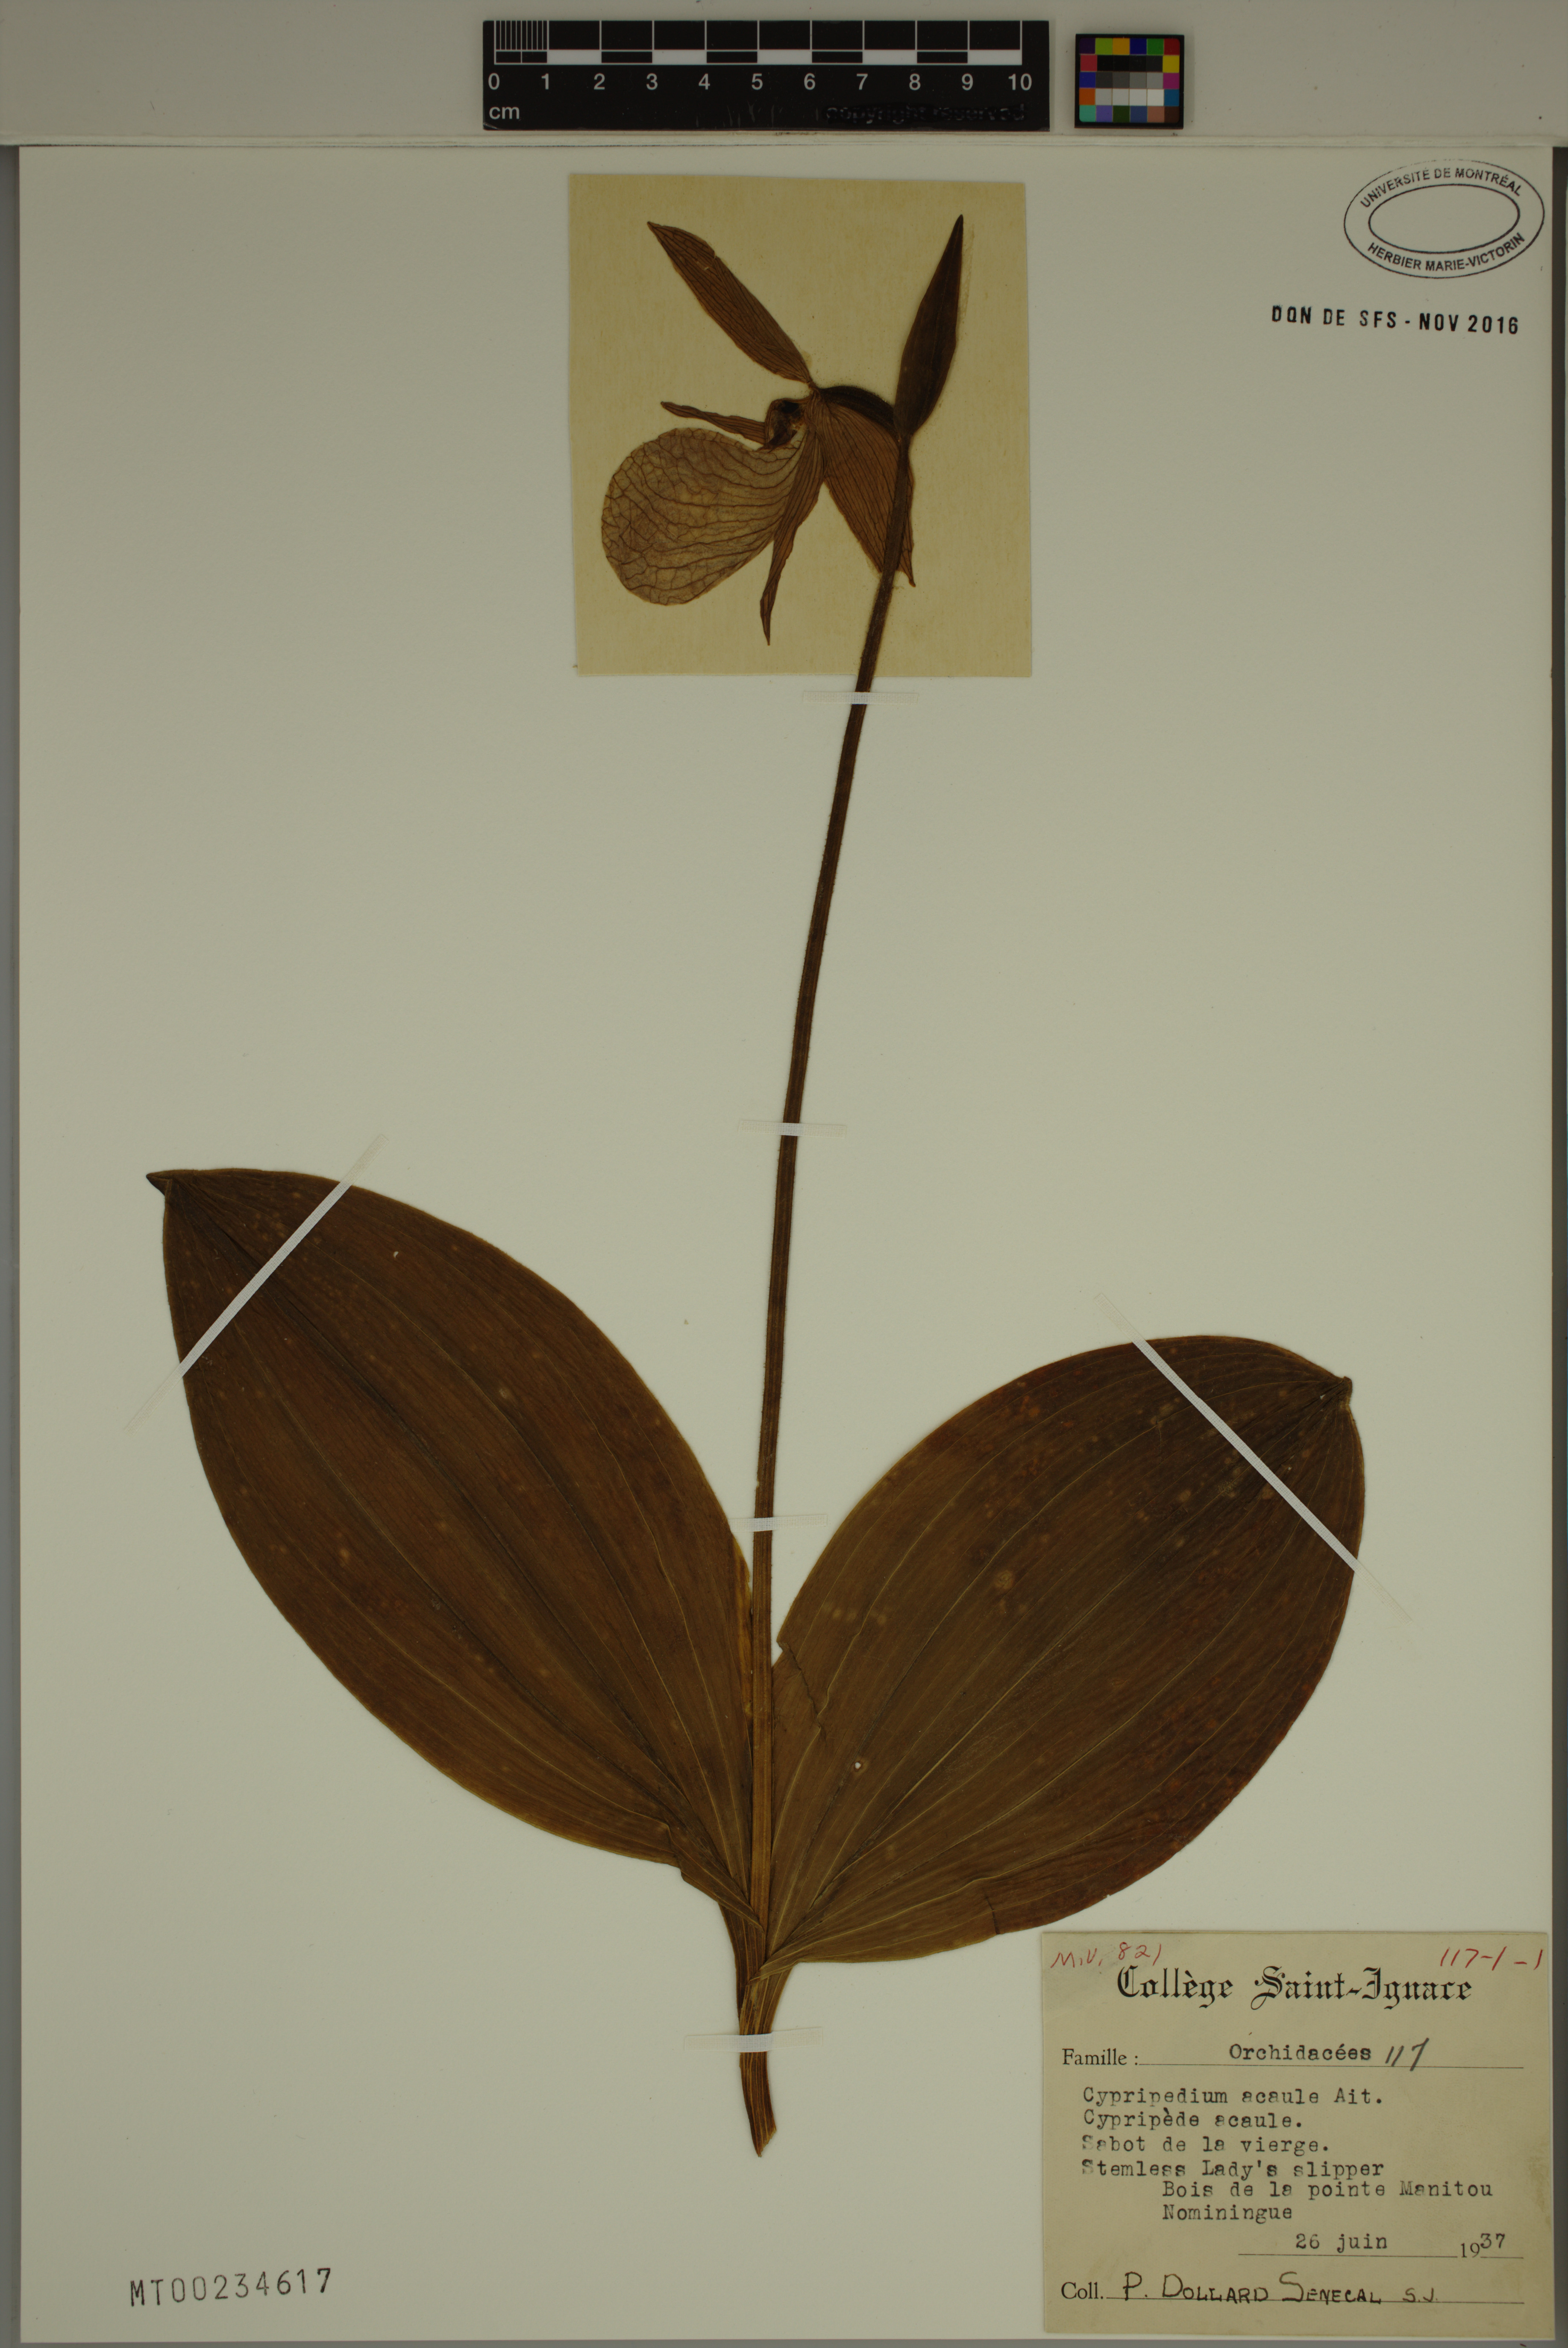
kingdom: Plantae
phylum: Tracheophyta
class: Liliopsida
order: Asparagales
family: Orchidaceae
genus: Cypripedium
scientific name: Cypripedium acaule
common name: Pink lady's-slipper
